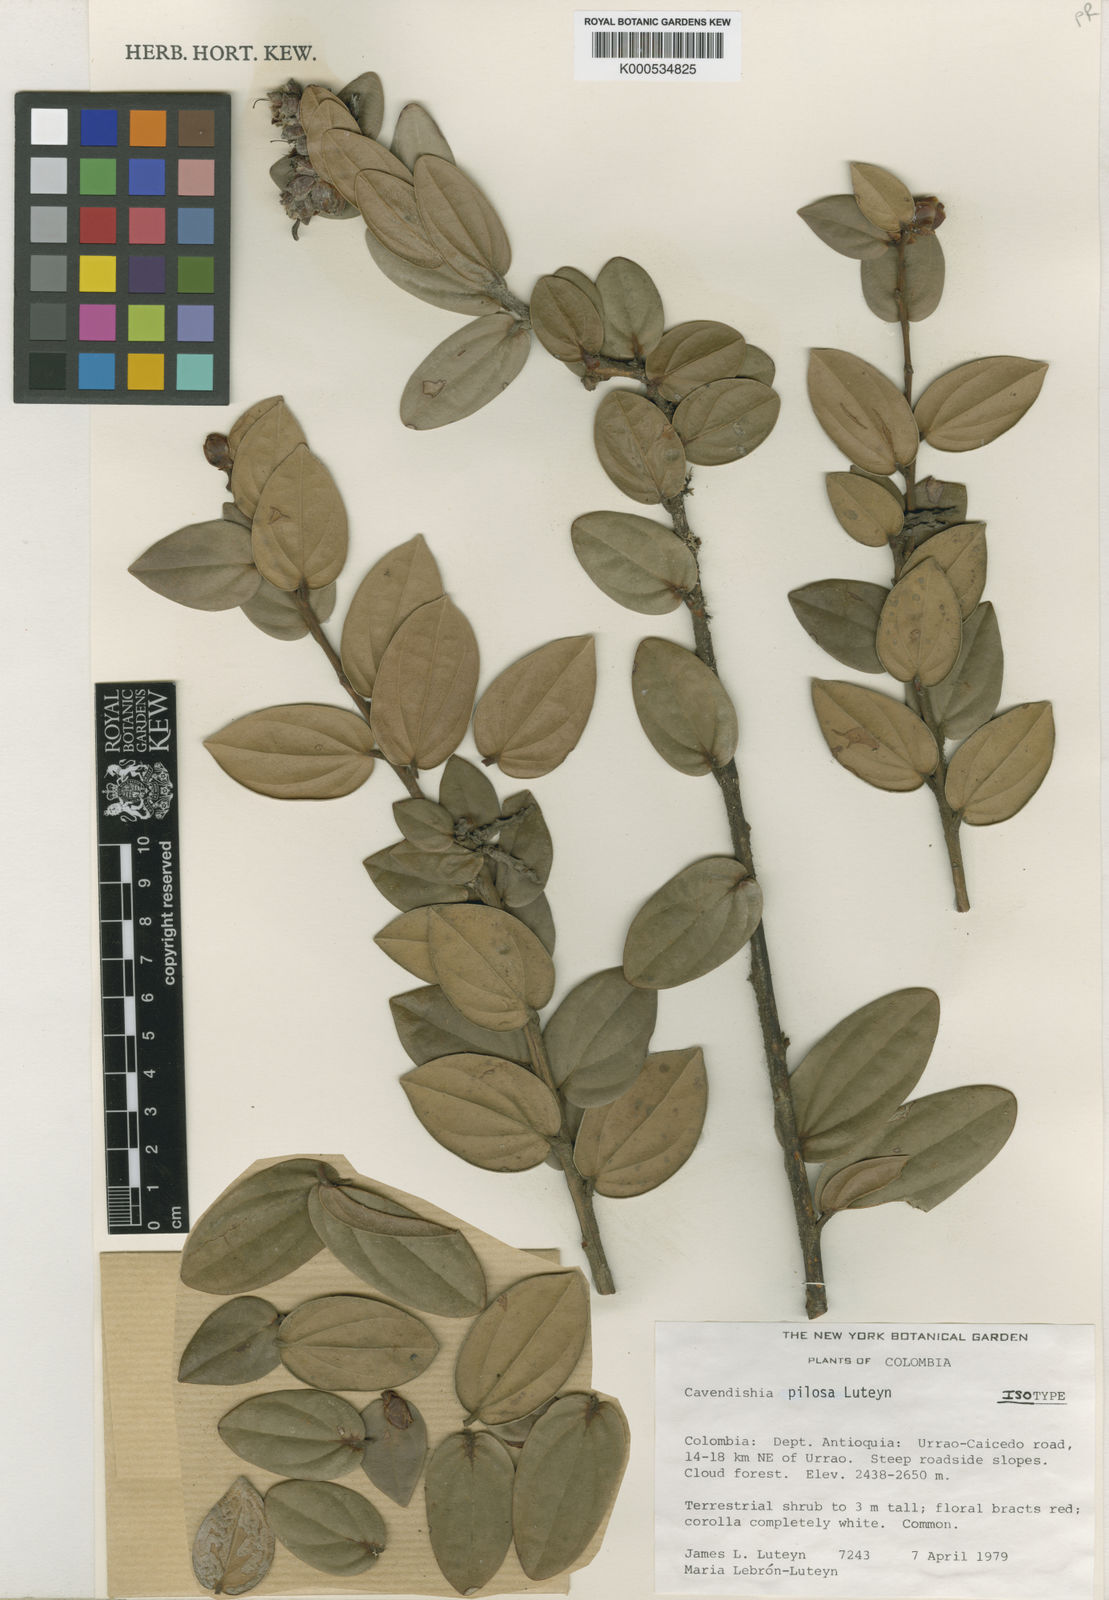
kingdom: Plantae
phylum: Tracheophyta
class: Magnoliopsida
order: Ericales
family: Ericaceae
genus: Cavendishia
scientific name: Cavendishia pilosa
